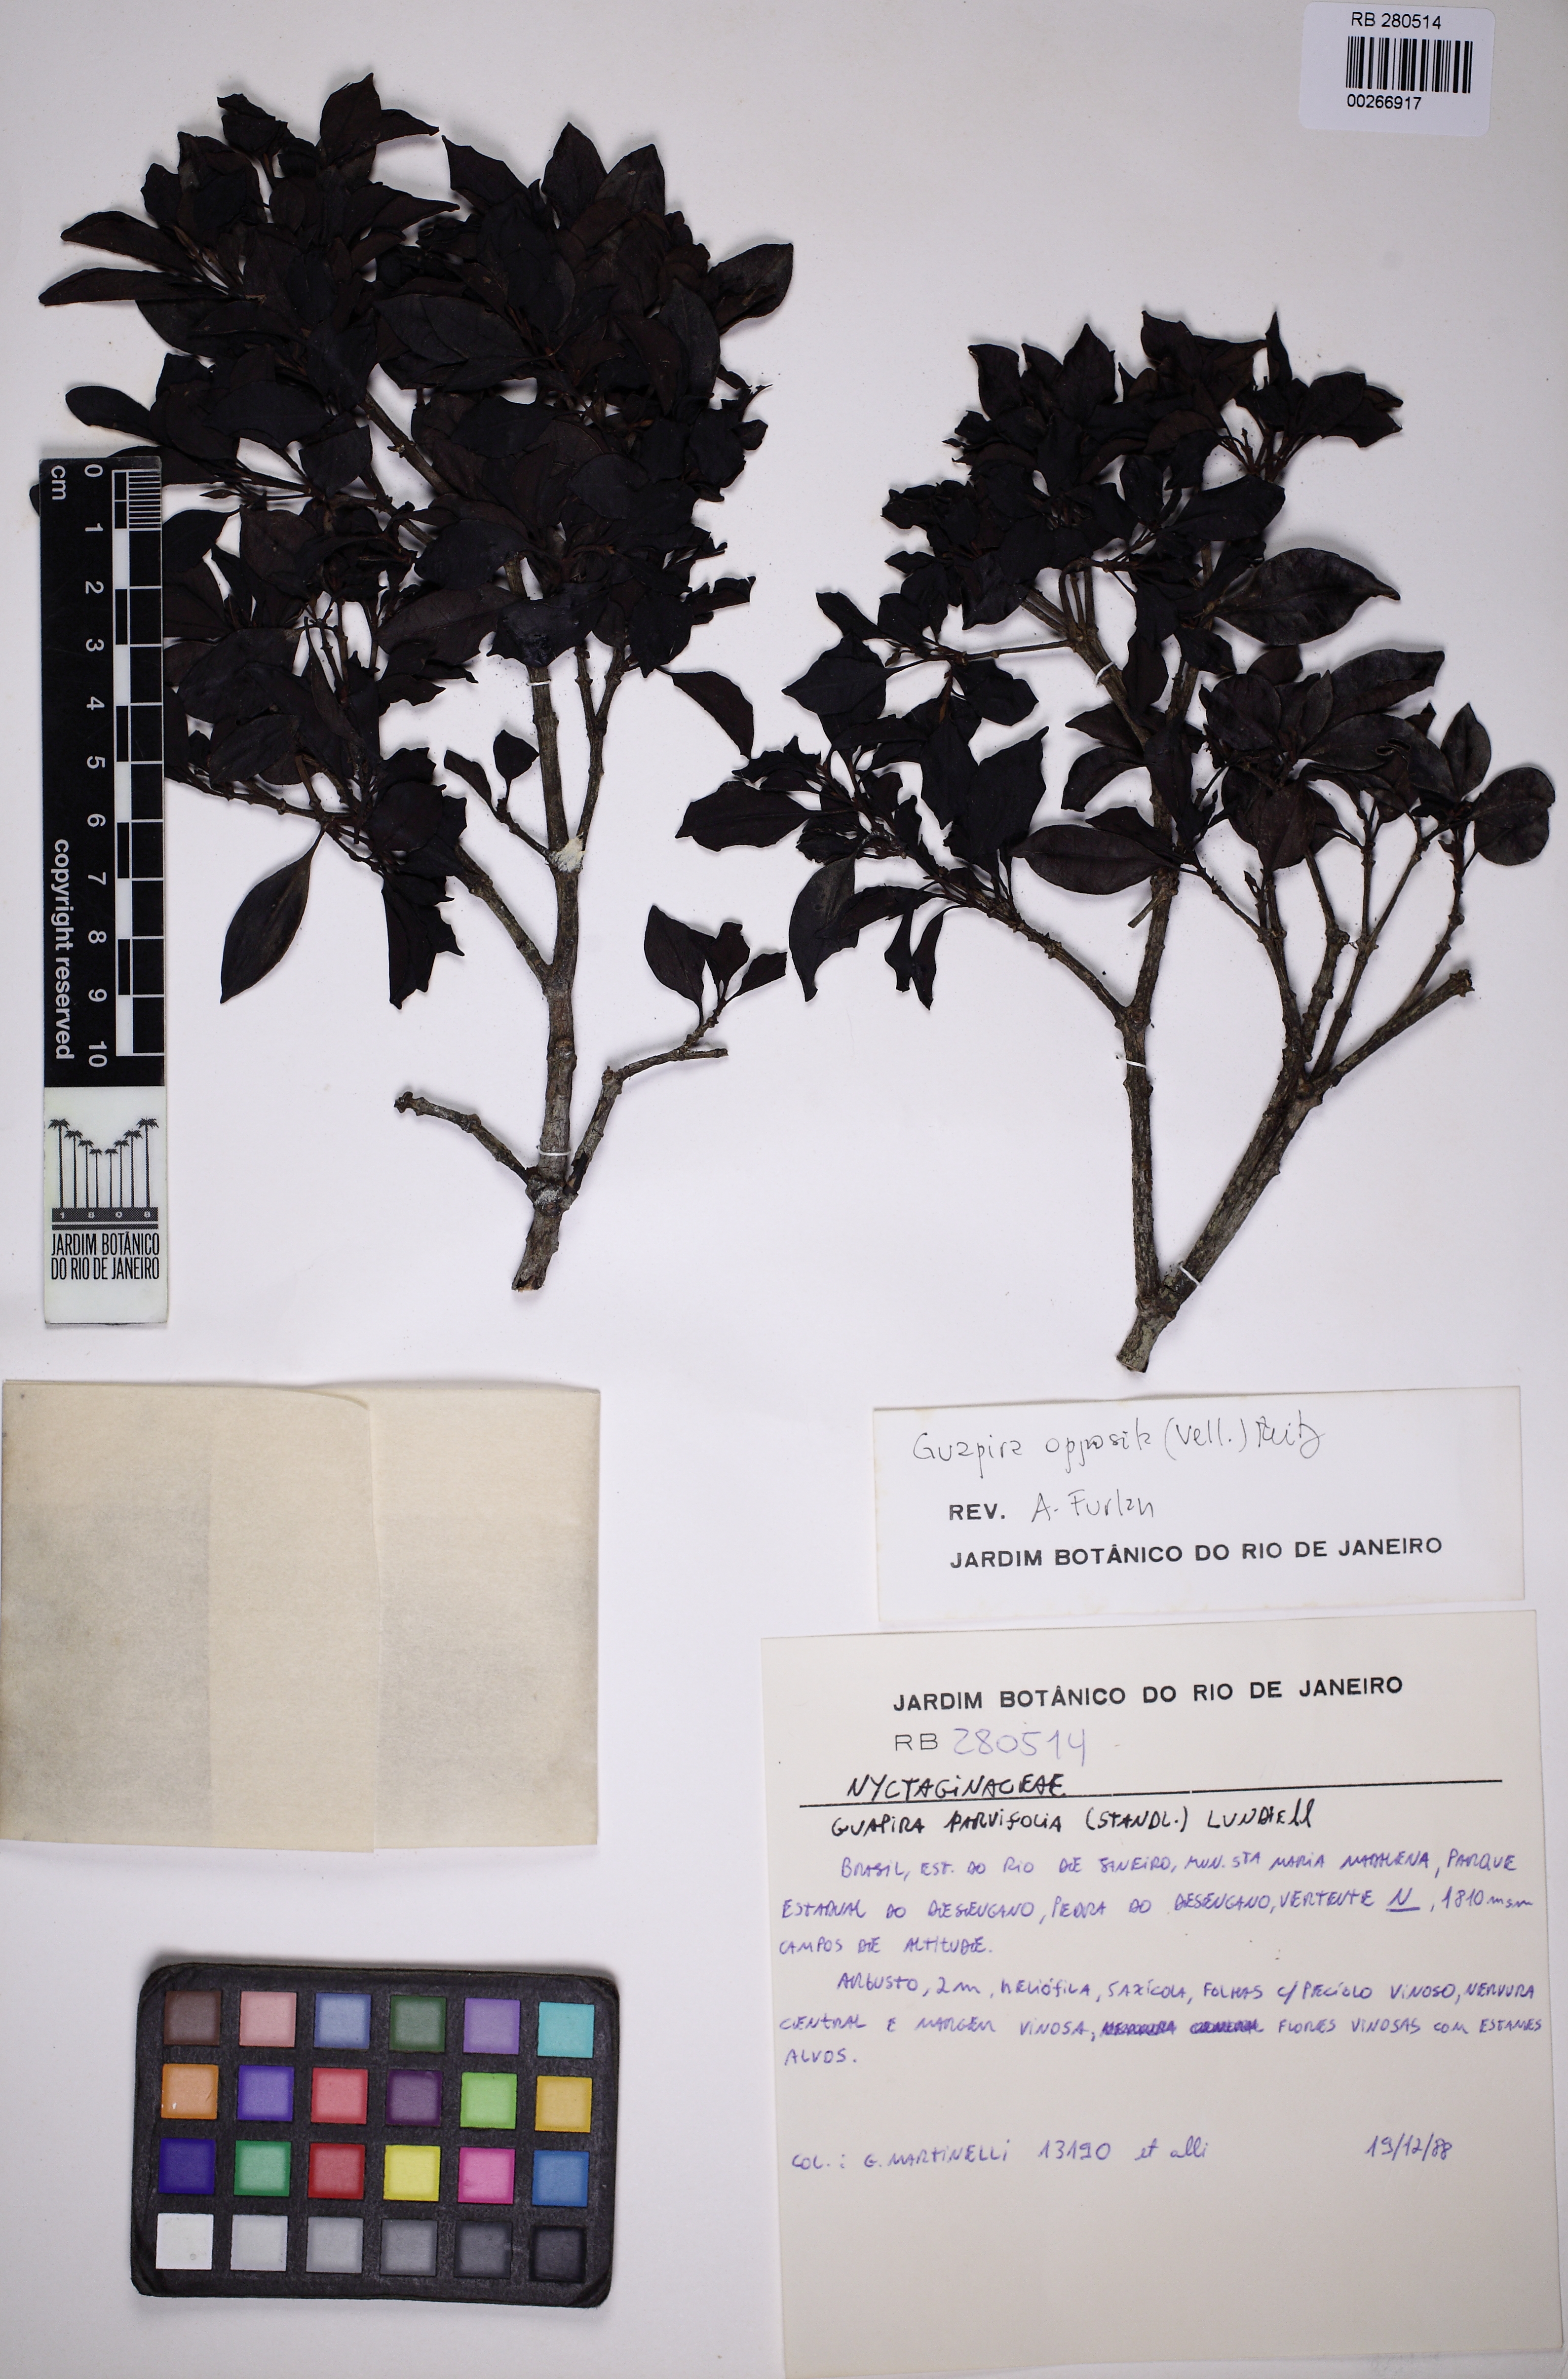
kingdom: Plantae
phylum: Tracheophyta
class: Magnoliopsida
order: Caryophyllales
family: Nyctaginaceae
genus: Guapira
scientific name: Guapira opposita
